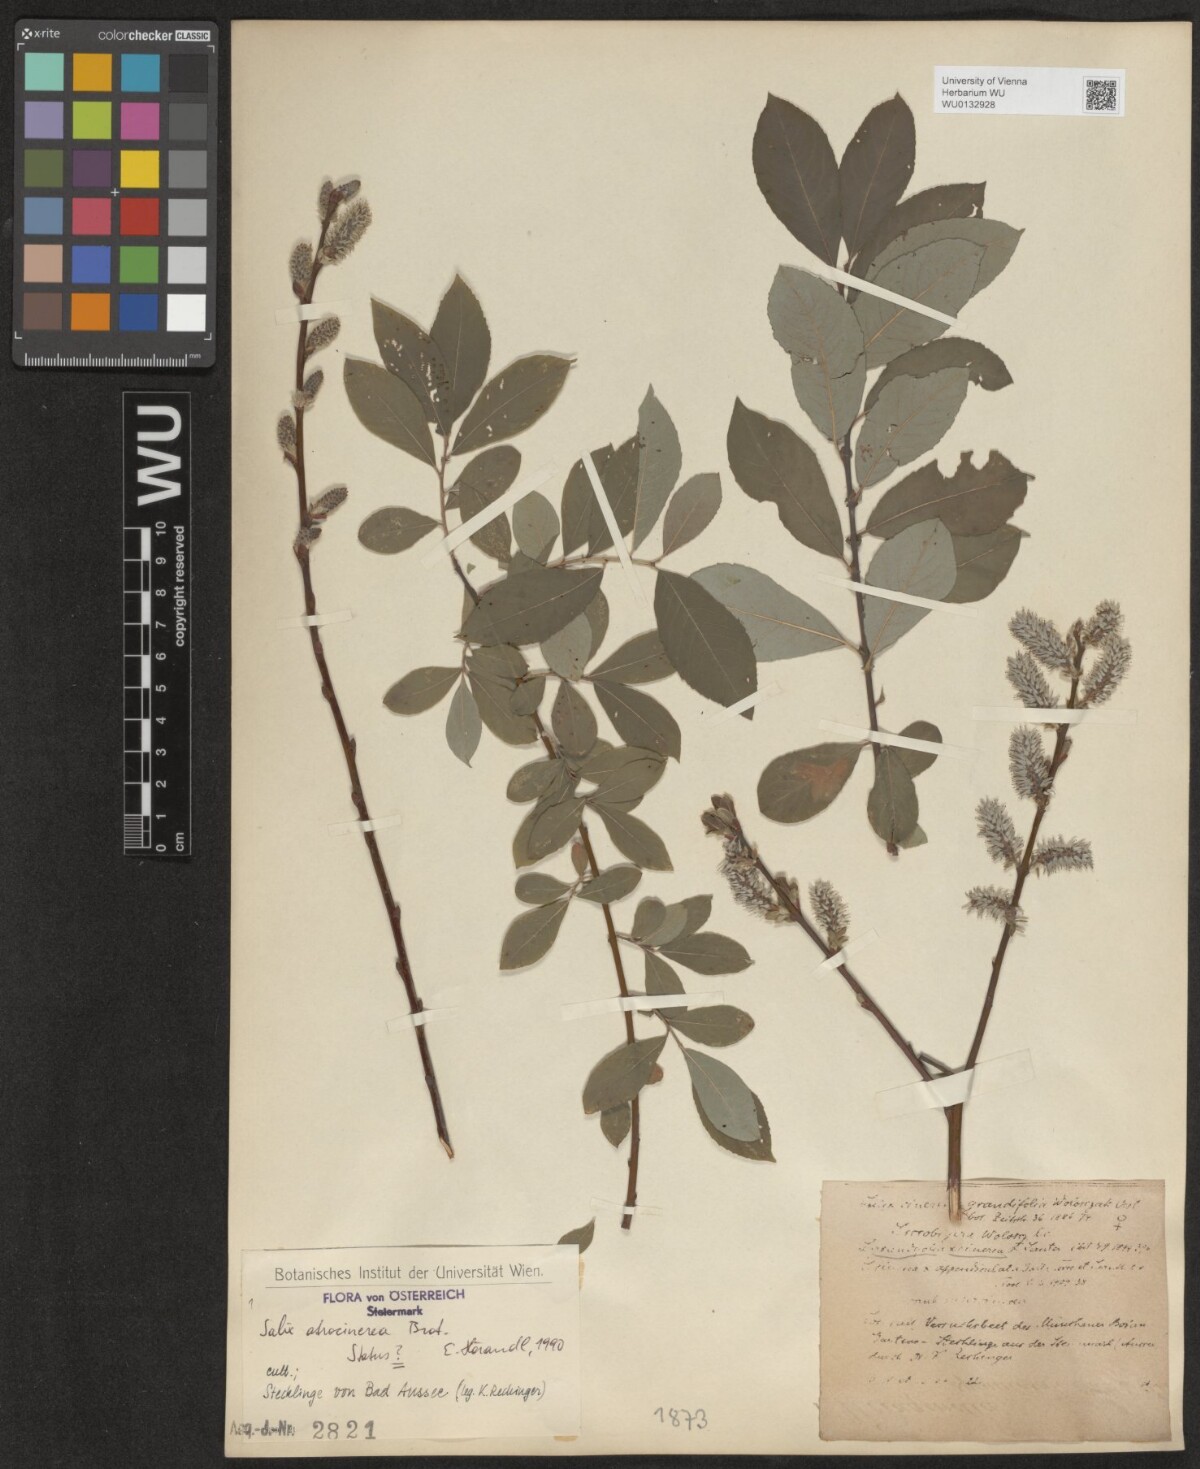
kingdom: Plantae
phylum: Tracheophyta
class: Magnoliopsida
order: Malpighiales
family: Salicaceae
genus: Salix
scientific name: Salix atrocinerea
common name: Rusty willow
